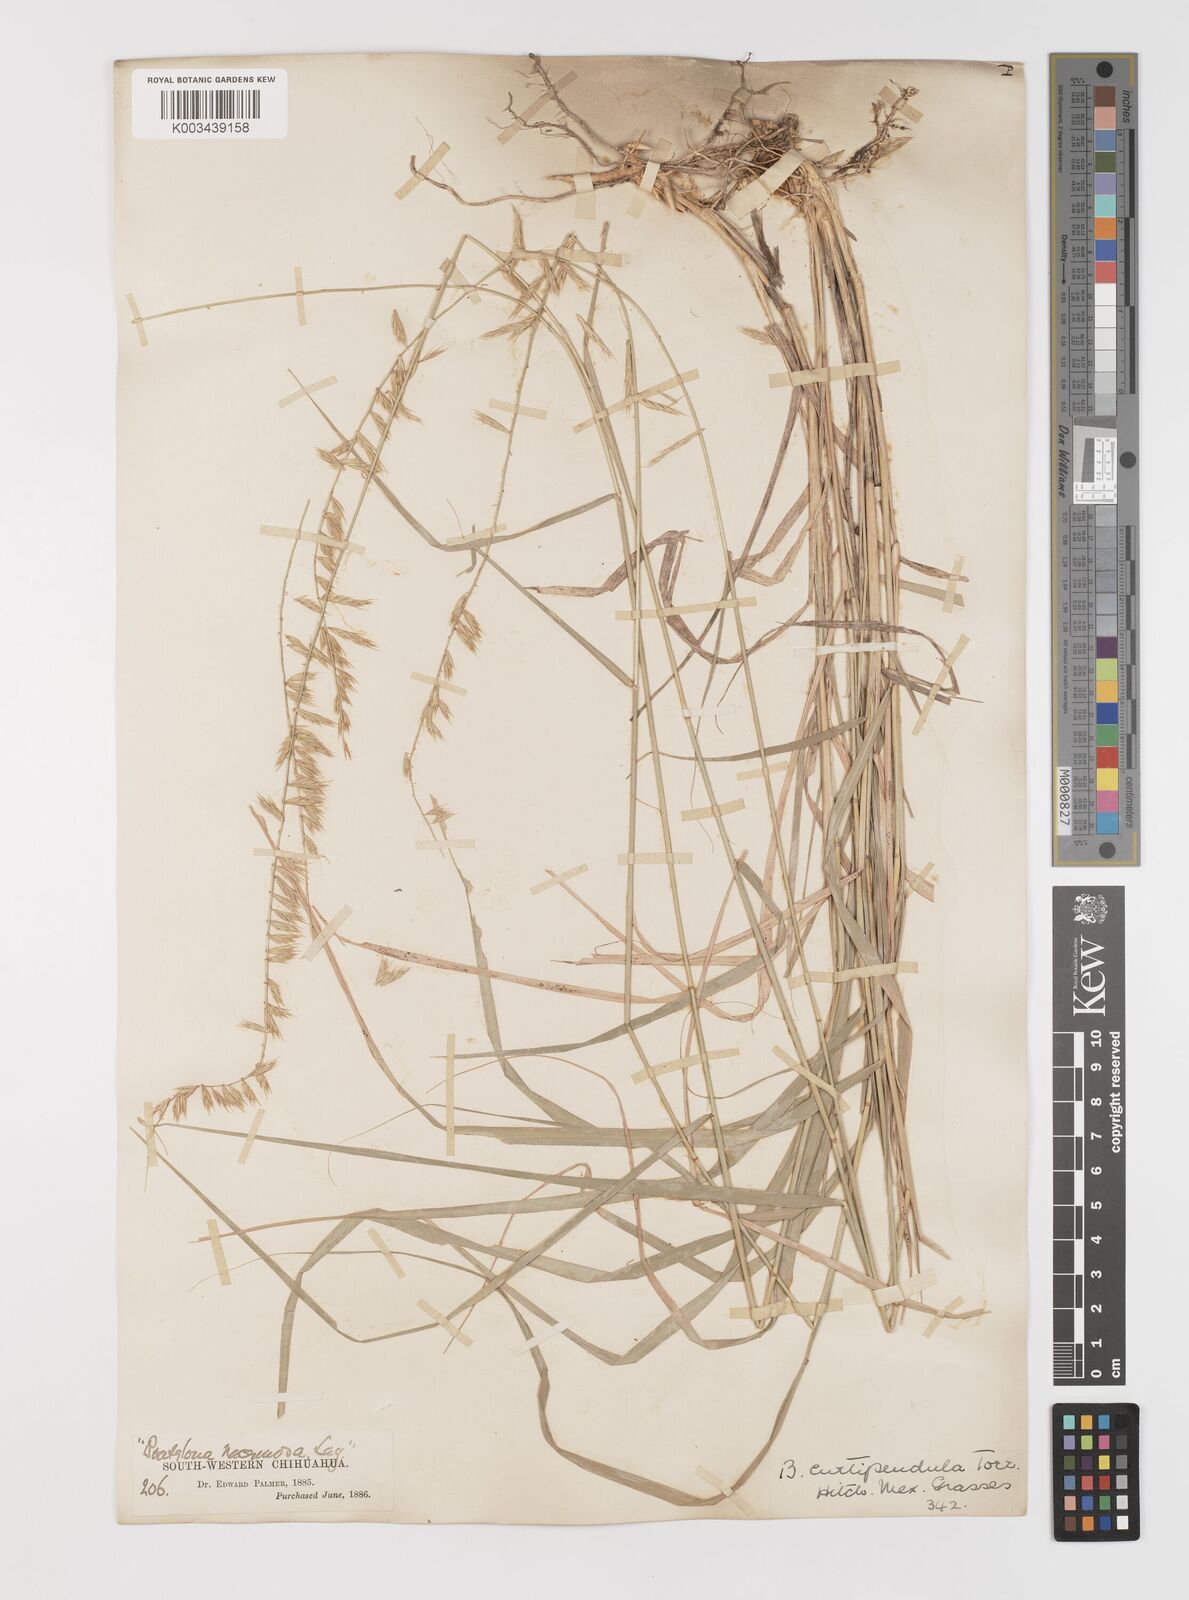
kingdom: Plantae
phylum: Tracheophyta
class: Liliopsida
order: Poales
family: Poaceae
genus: Bouteloua
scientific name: Bouteloua curtipendula
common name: Side-oats grama
